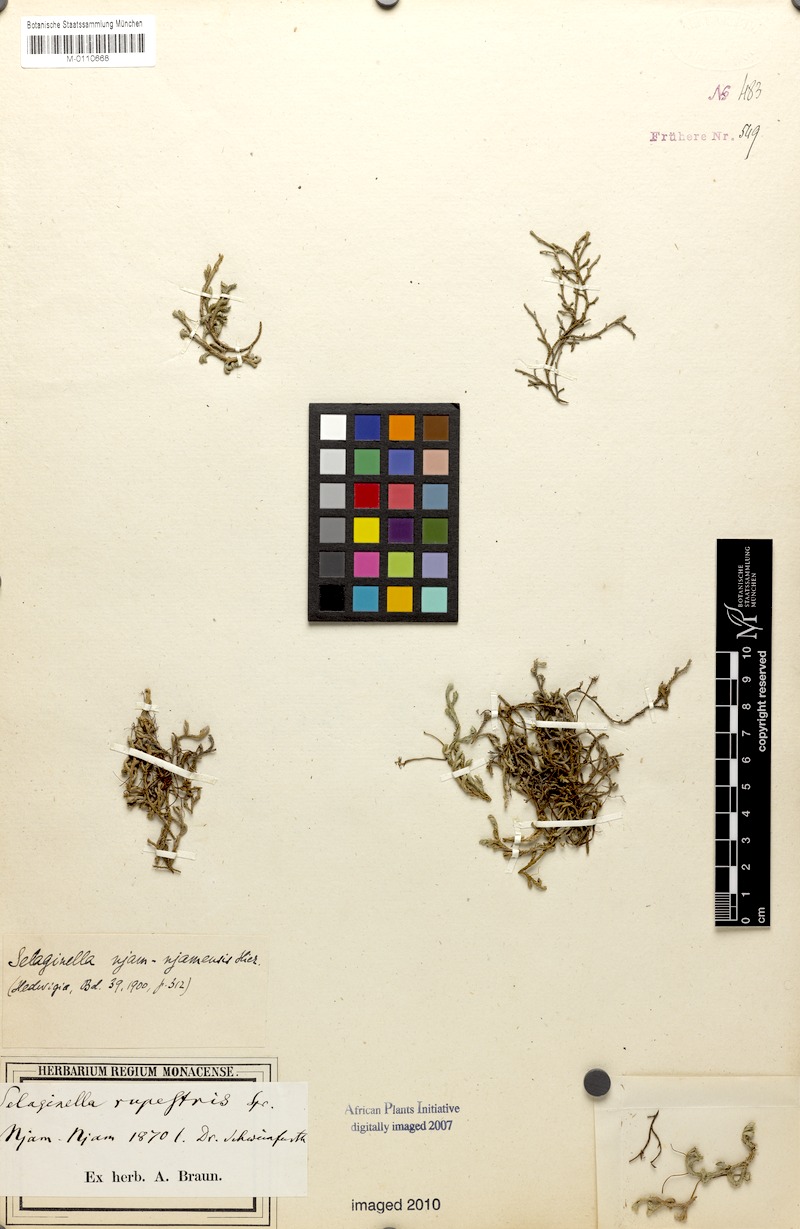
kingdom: Plantae
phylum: Tracheophyta
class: Lycopodiopsida
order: Selaginellales
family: Selaginellaceae
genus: Selaginella
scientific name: Selaginella njamnjamensis
